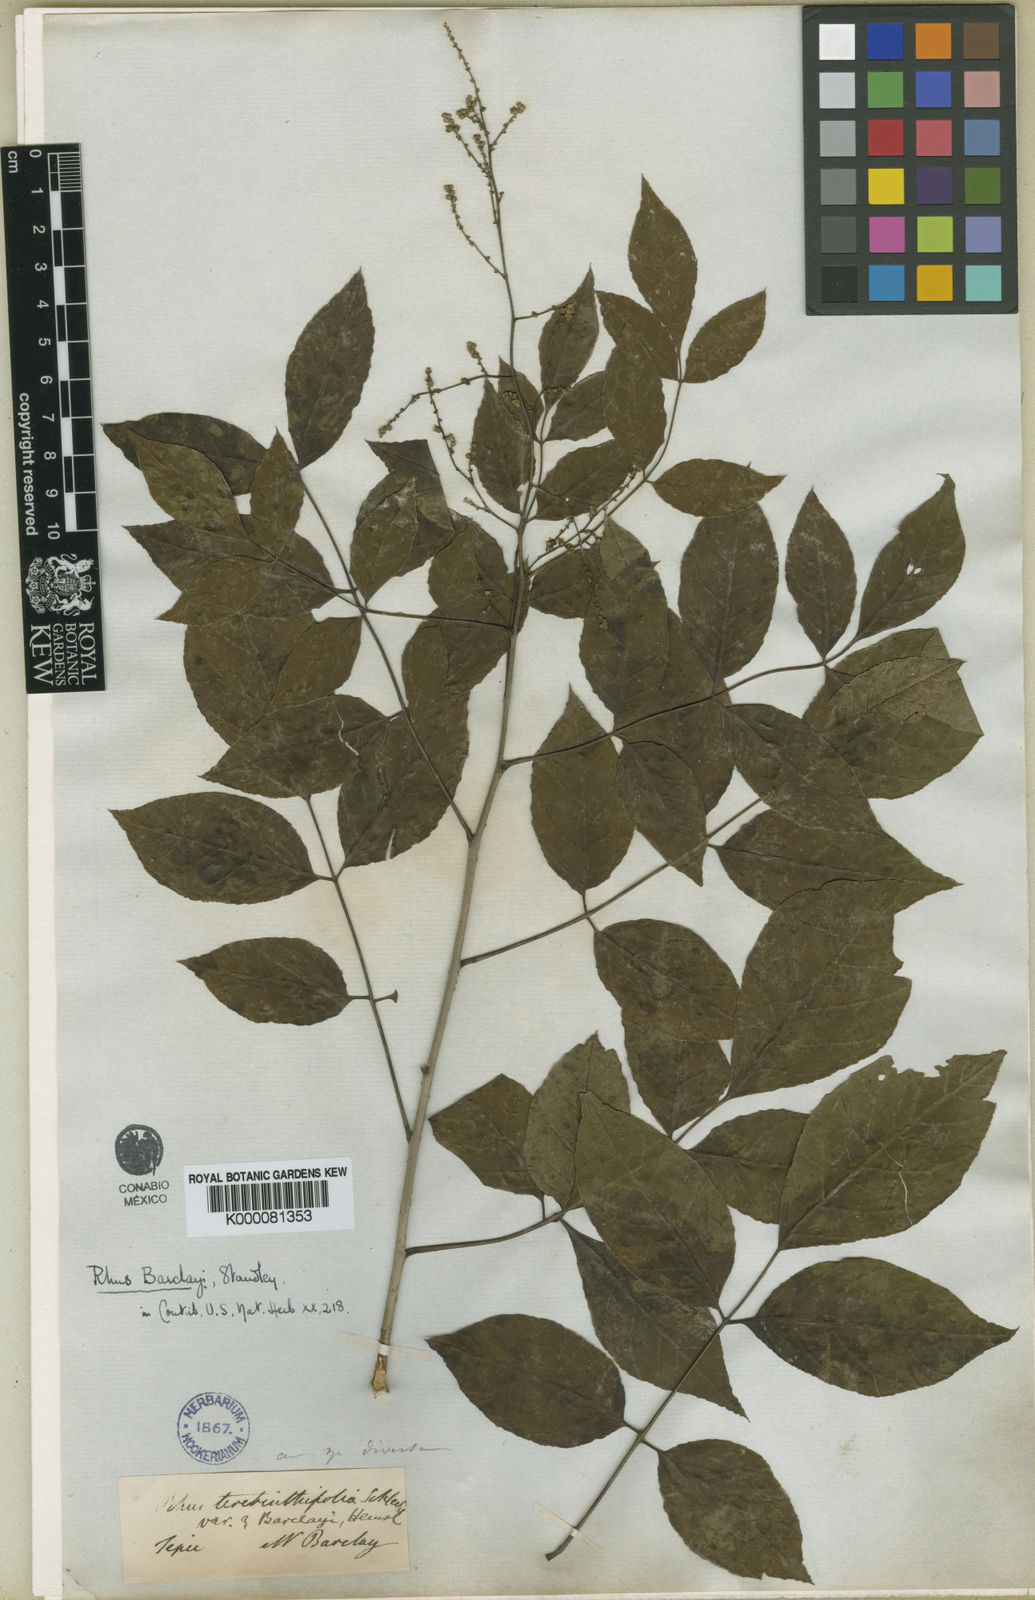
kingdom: Plantae
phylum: Tracheophyta
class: Magnoliopsida
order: Sapindales
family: Anacardiaceae
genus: Rhus
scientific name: Rhus barclayi
